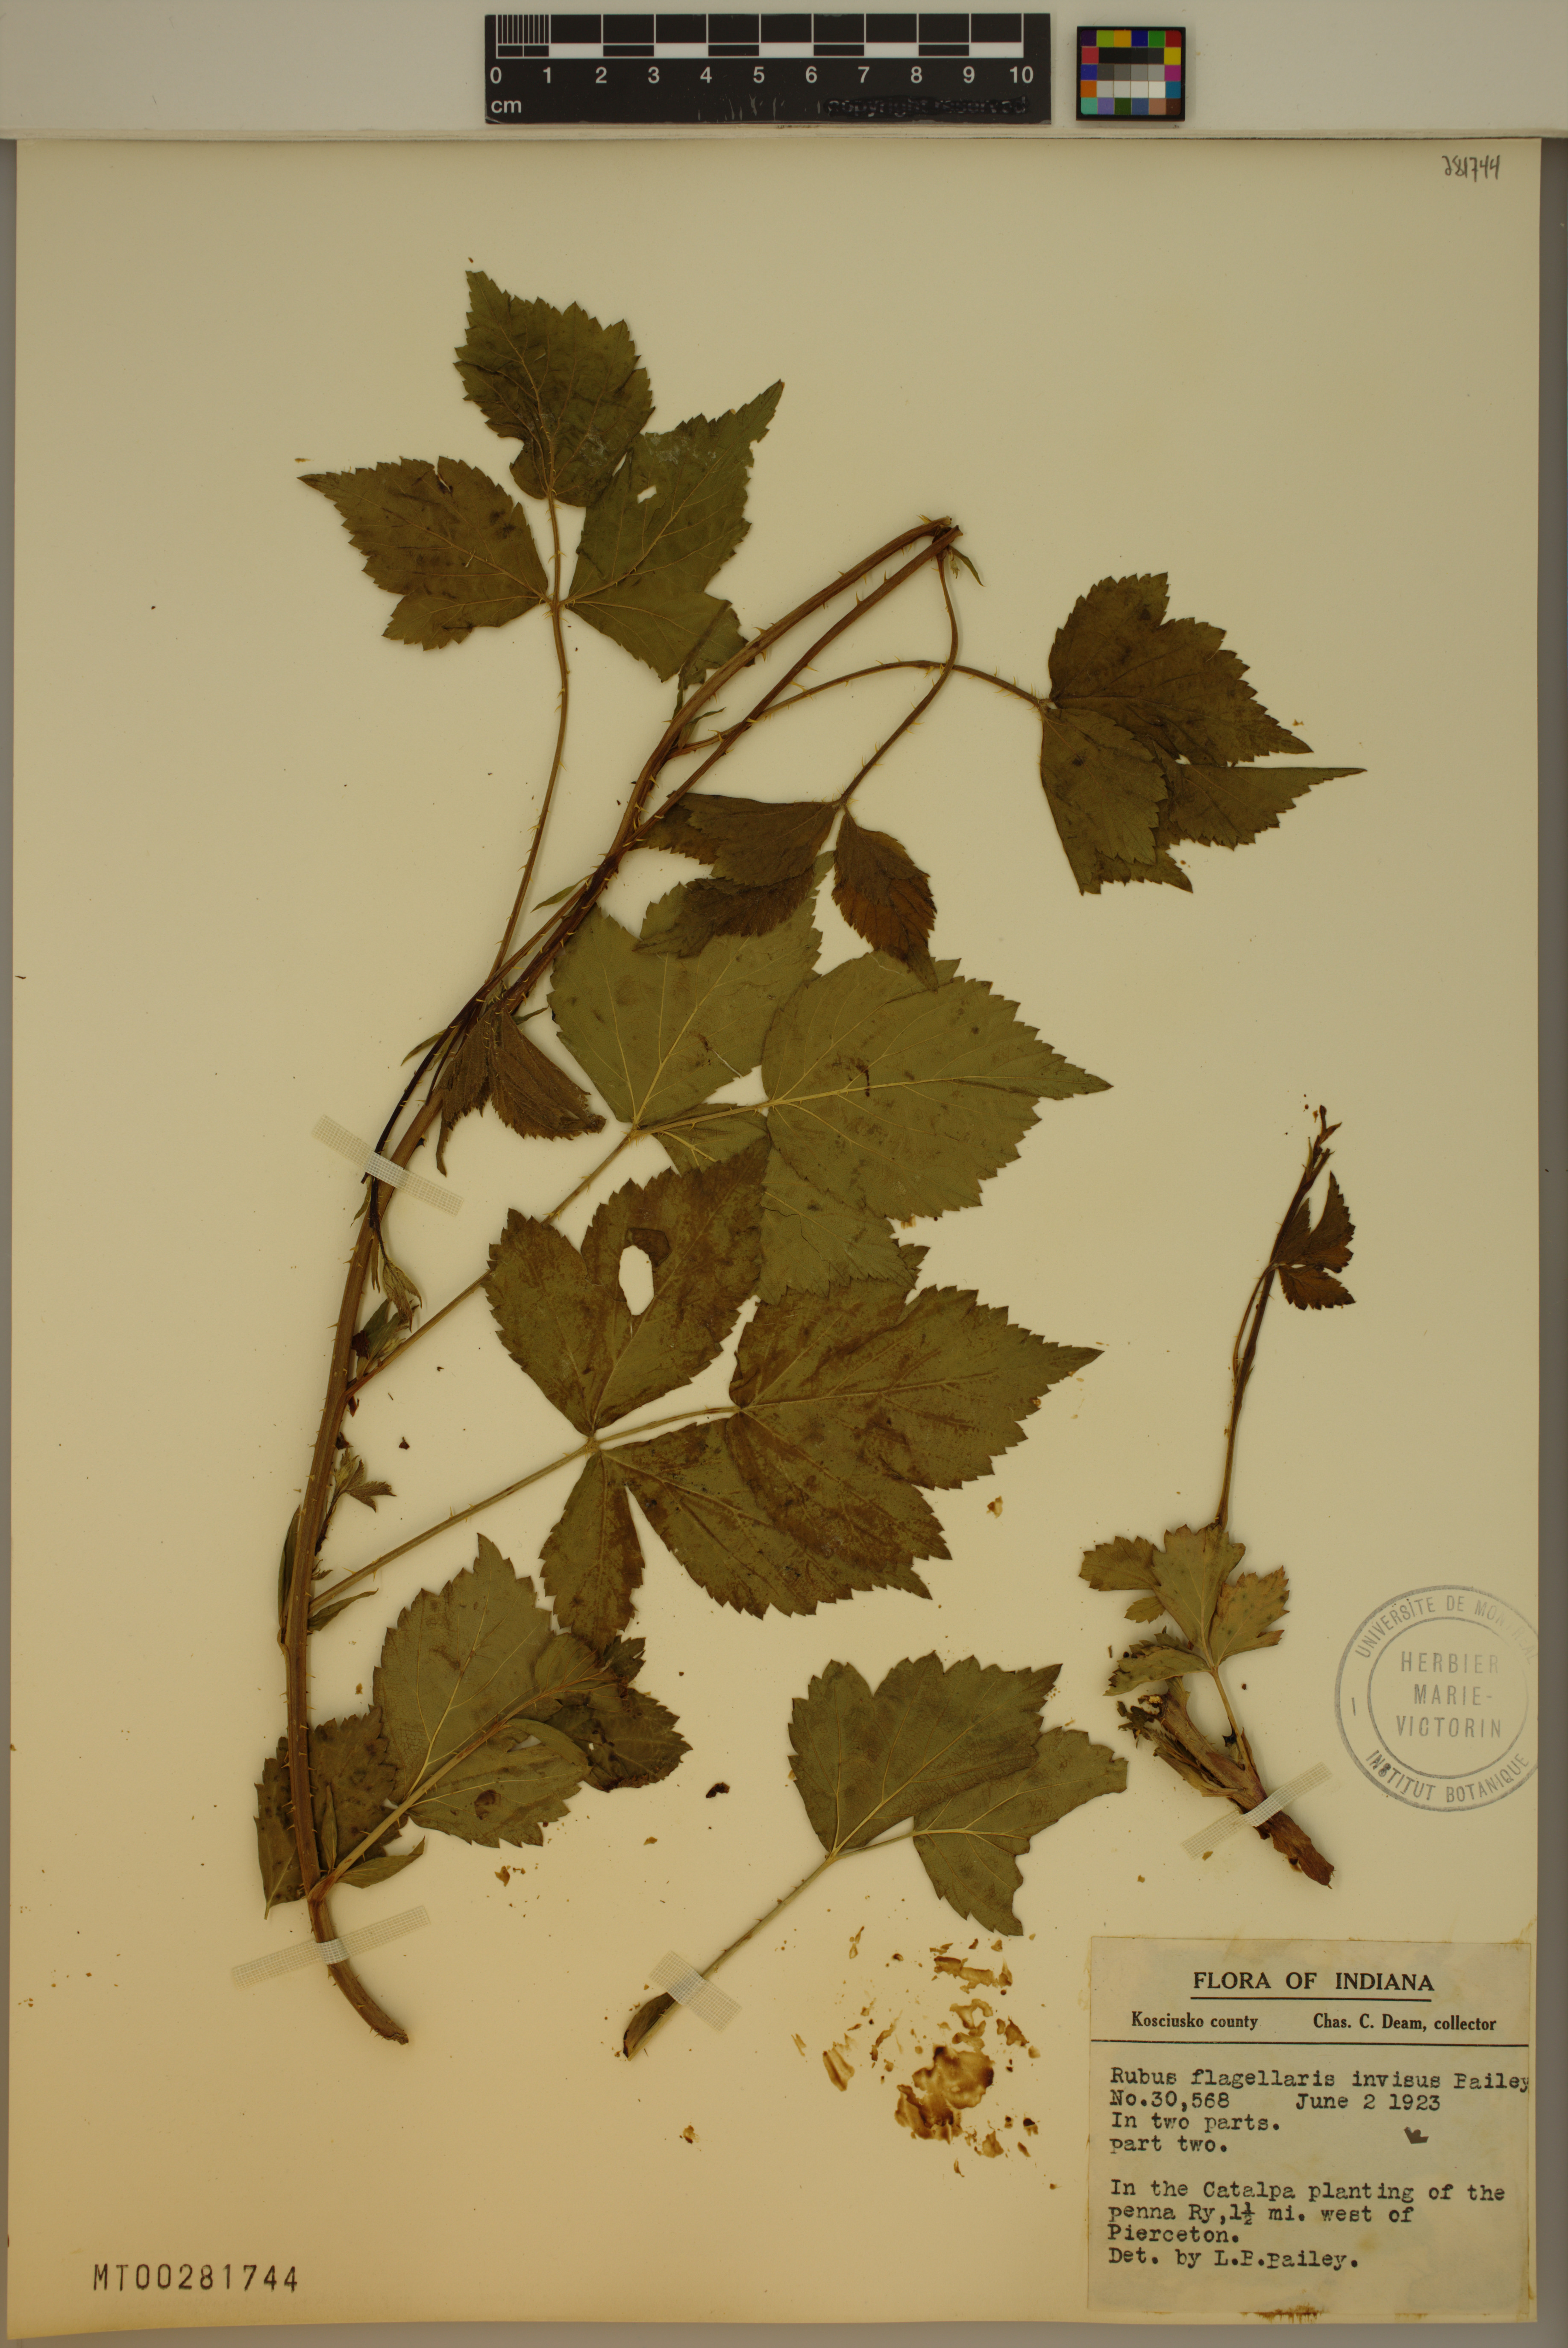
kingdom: Plantae
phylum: Tracheophyta
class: Magnoliopsida
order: Rosales
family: Rosaceae
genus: Rubus
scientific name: Rubus flagellaris
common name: American dewberry
